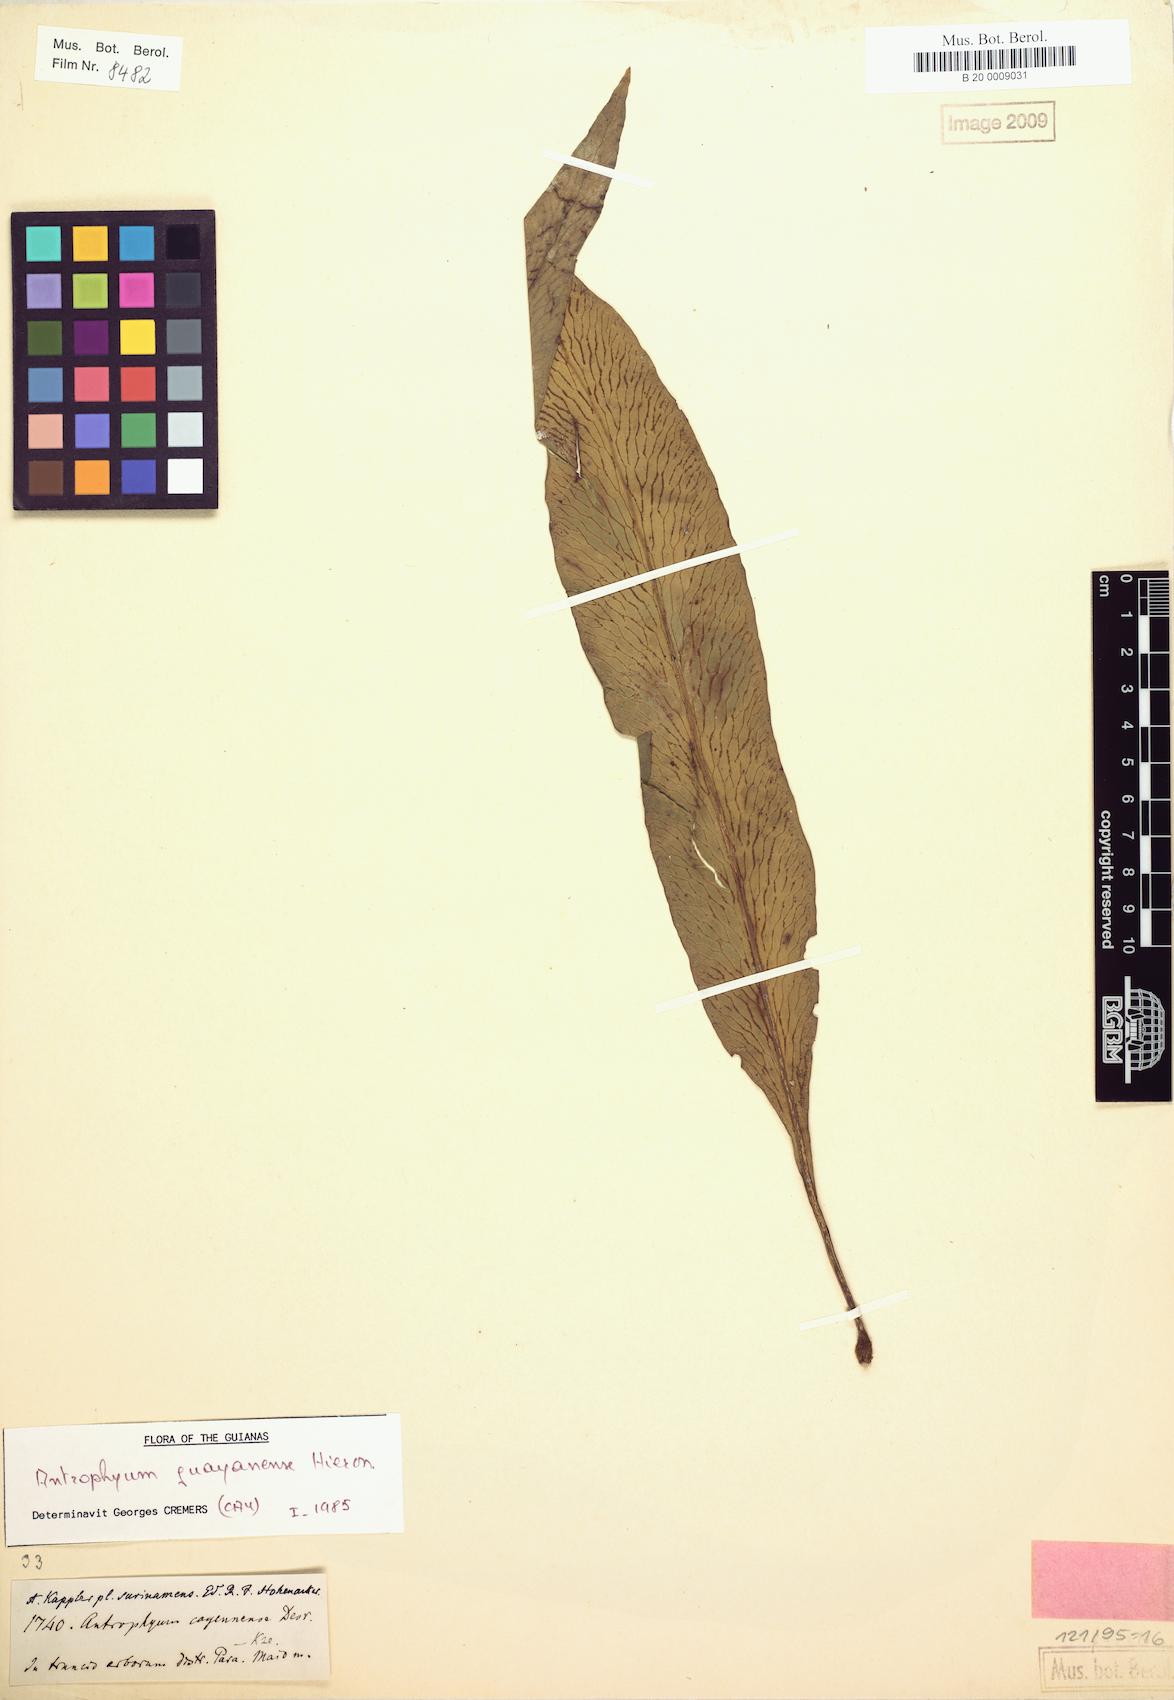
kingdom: Plantae
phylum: Tracheophyta
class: Polypodiopsida
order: Polypodiales
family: Pteridaceae
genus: Polytaenium
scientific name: Polytaenium guayanense
